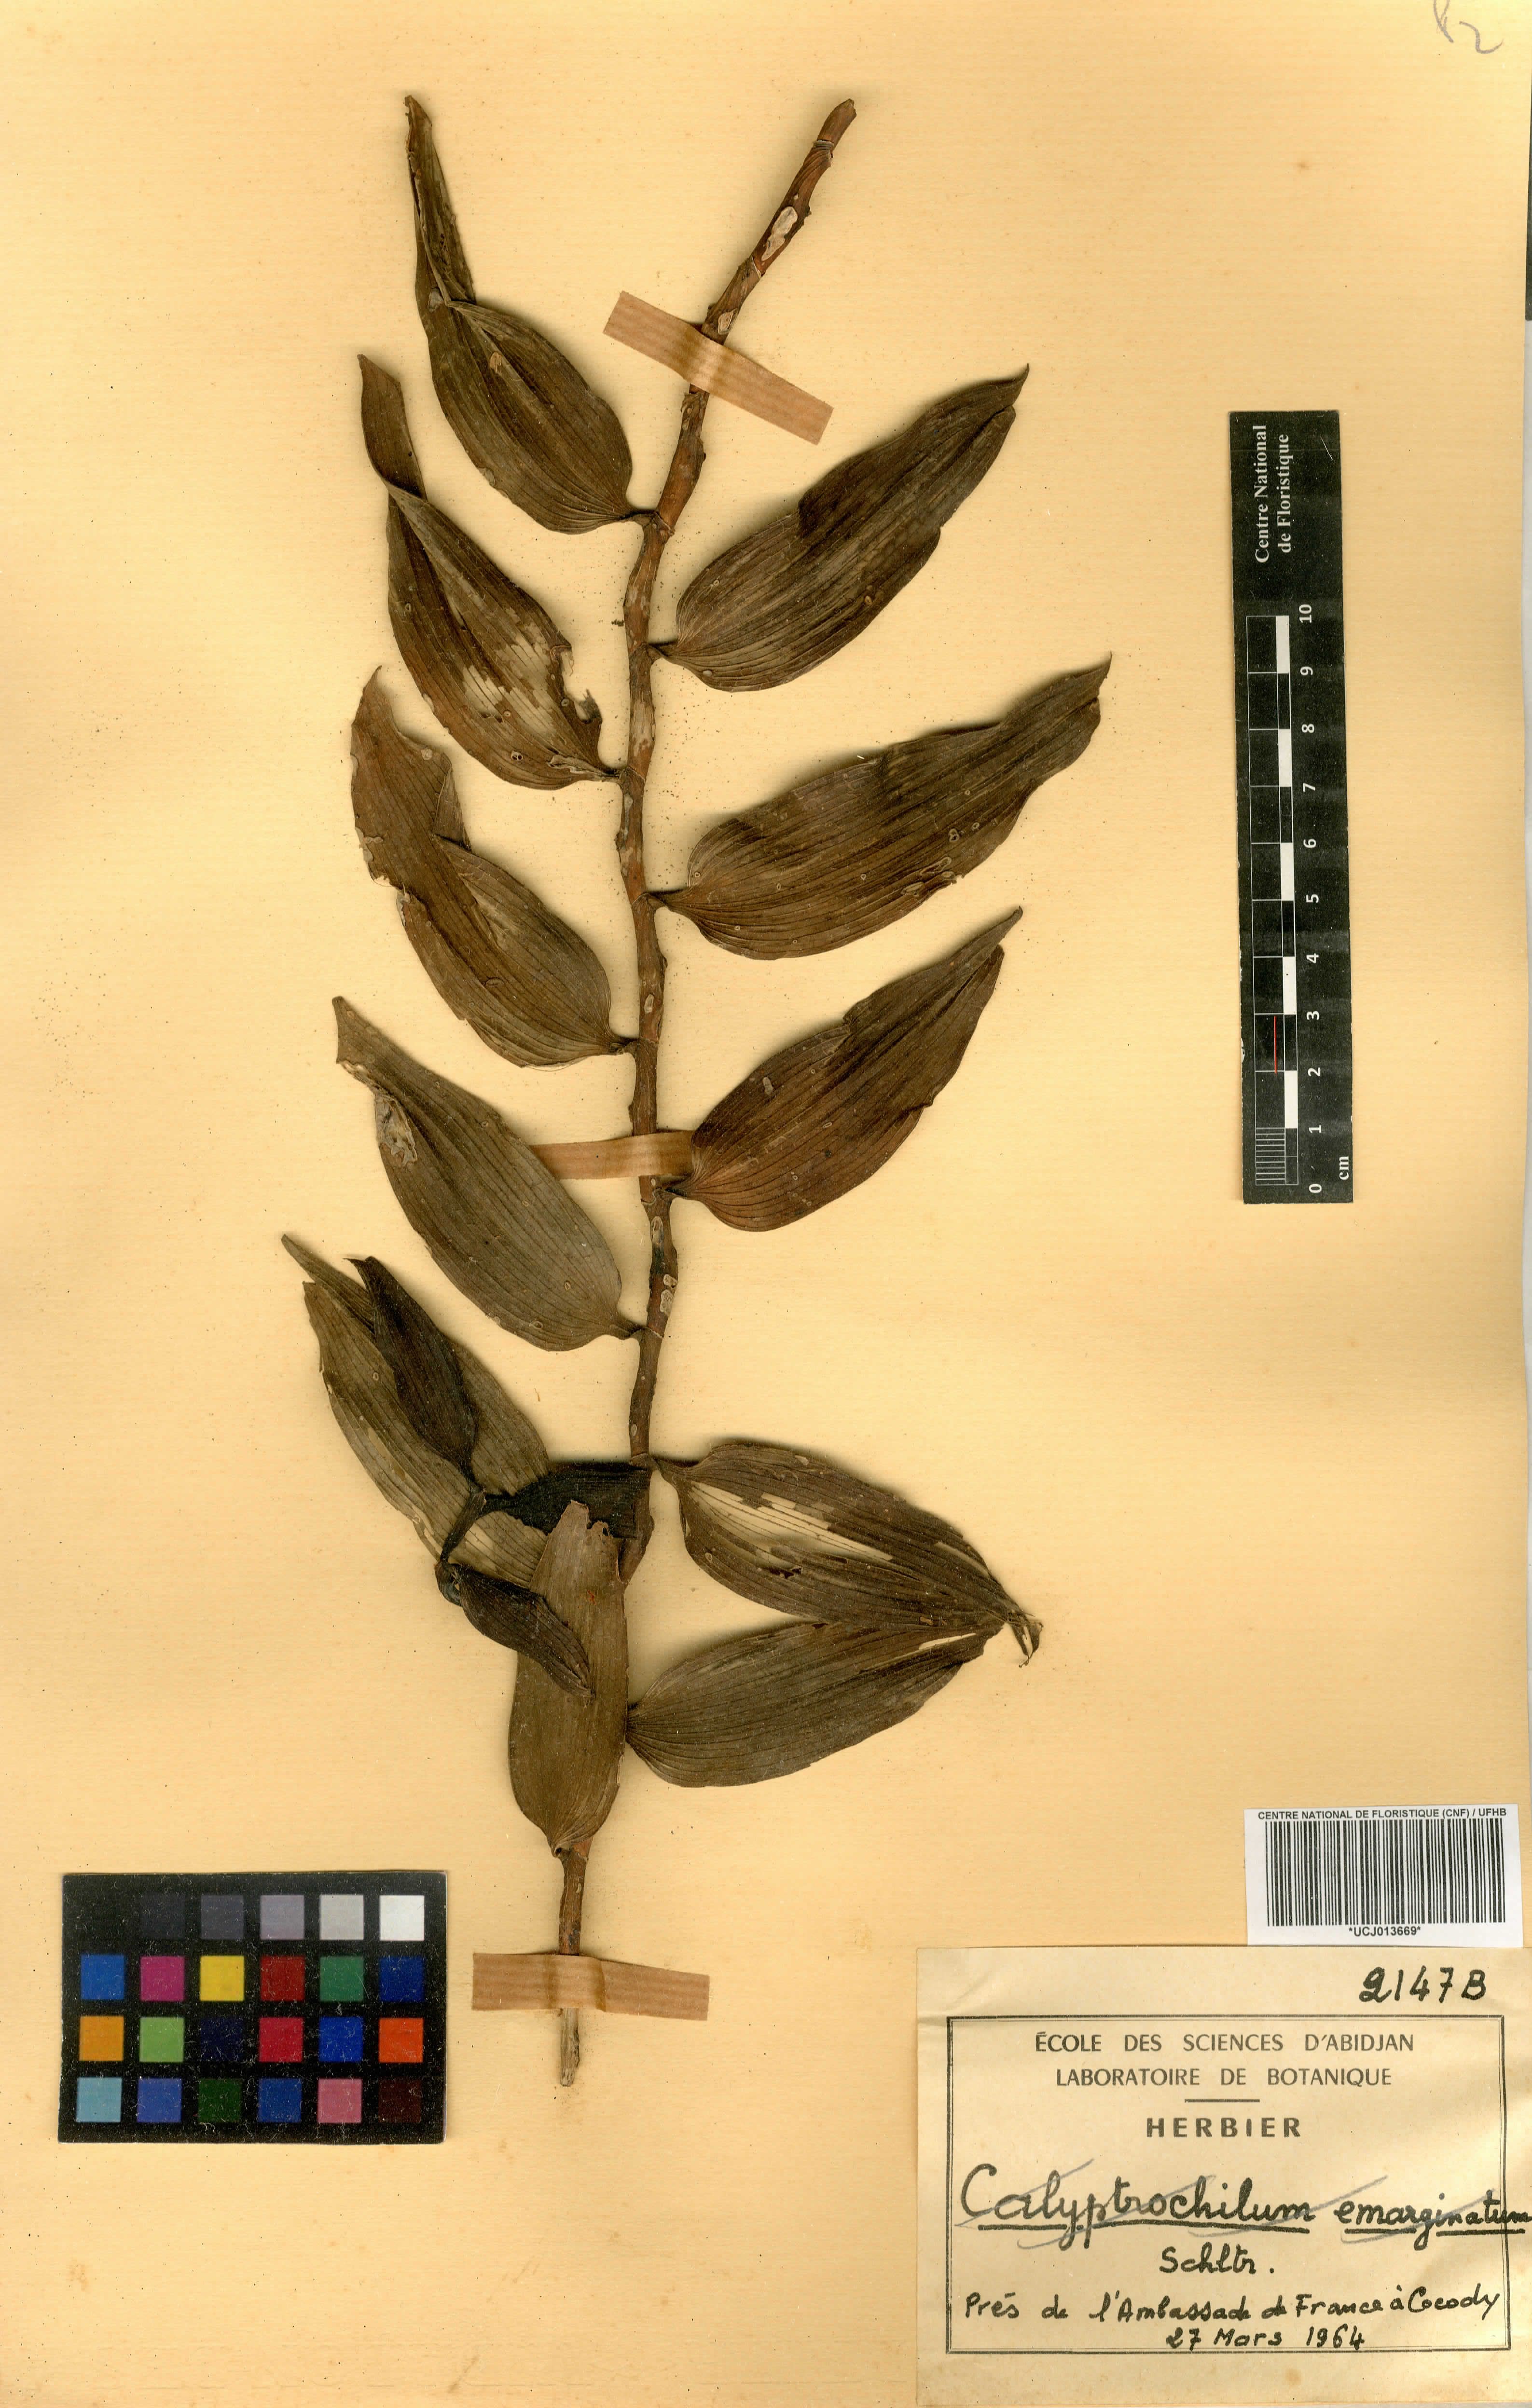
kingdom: Plantae
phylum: Tracheophyta
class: Liliopsida
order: Asparagales
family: Orchidaceae
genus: Diaphananthe
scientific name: Diaphananthe bidens
